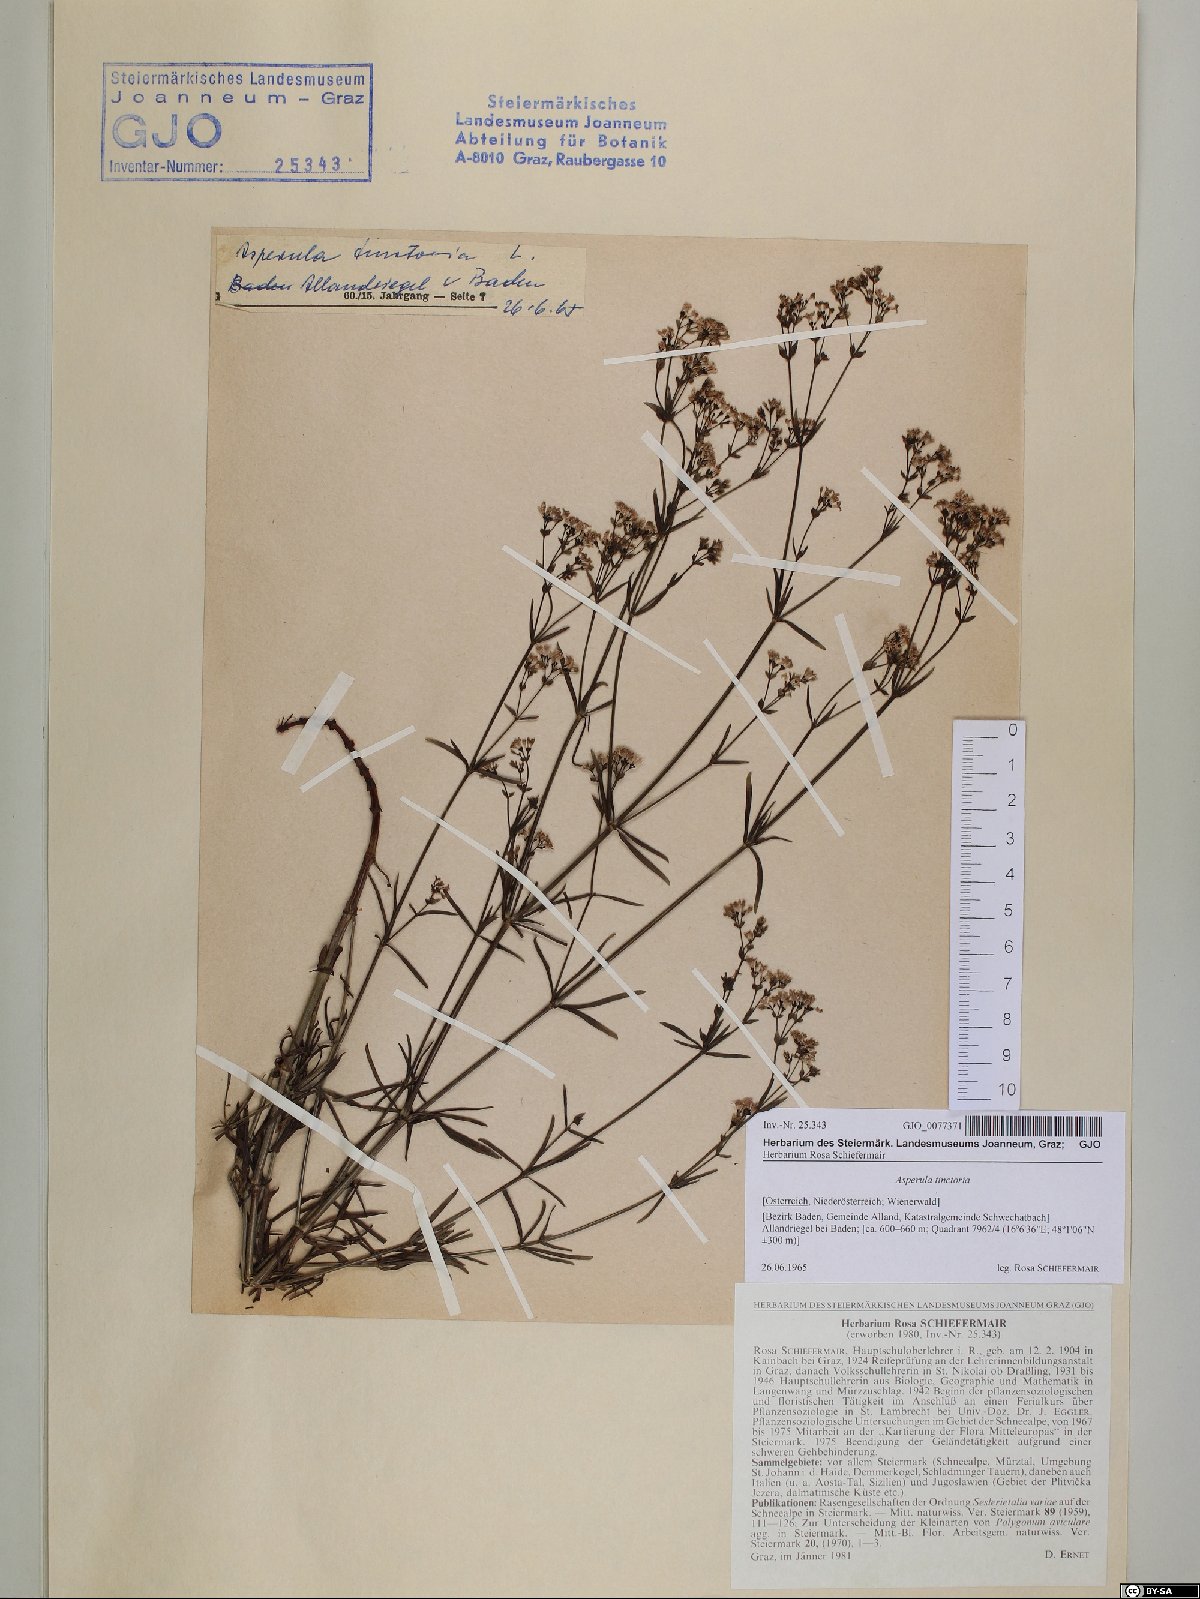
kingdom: Plantae
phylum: Tracheophyta
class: Magnoliopsida
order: Gentianales
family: Rubiaceae
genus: Asperula
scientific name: Asperula tinctoria
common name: Dyer's woodruff
